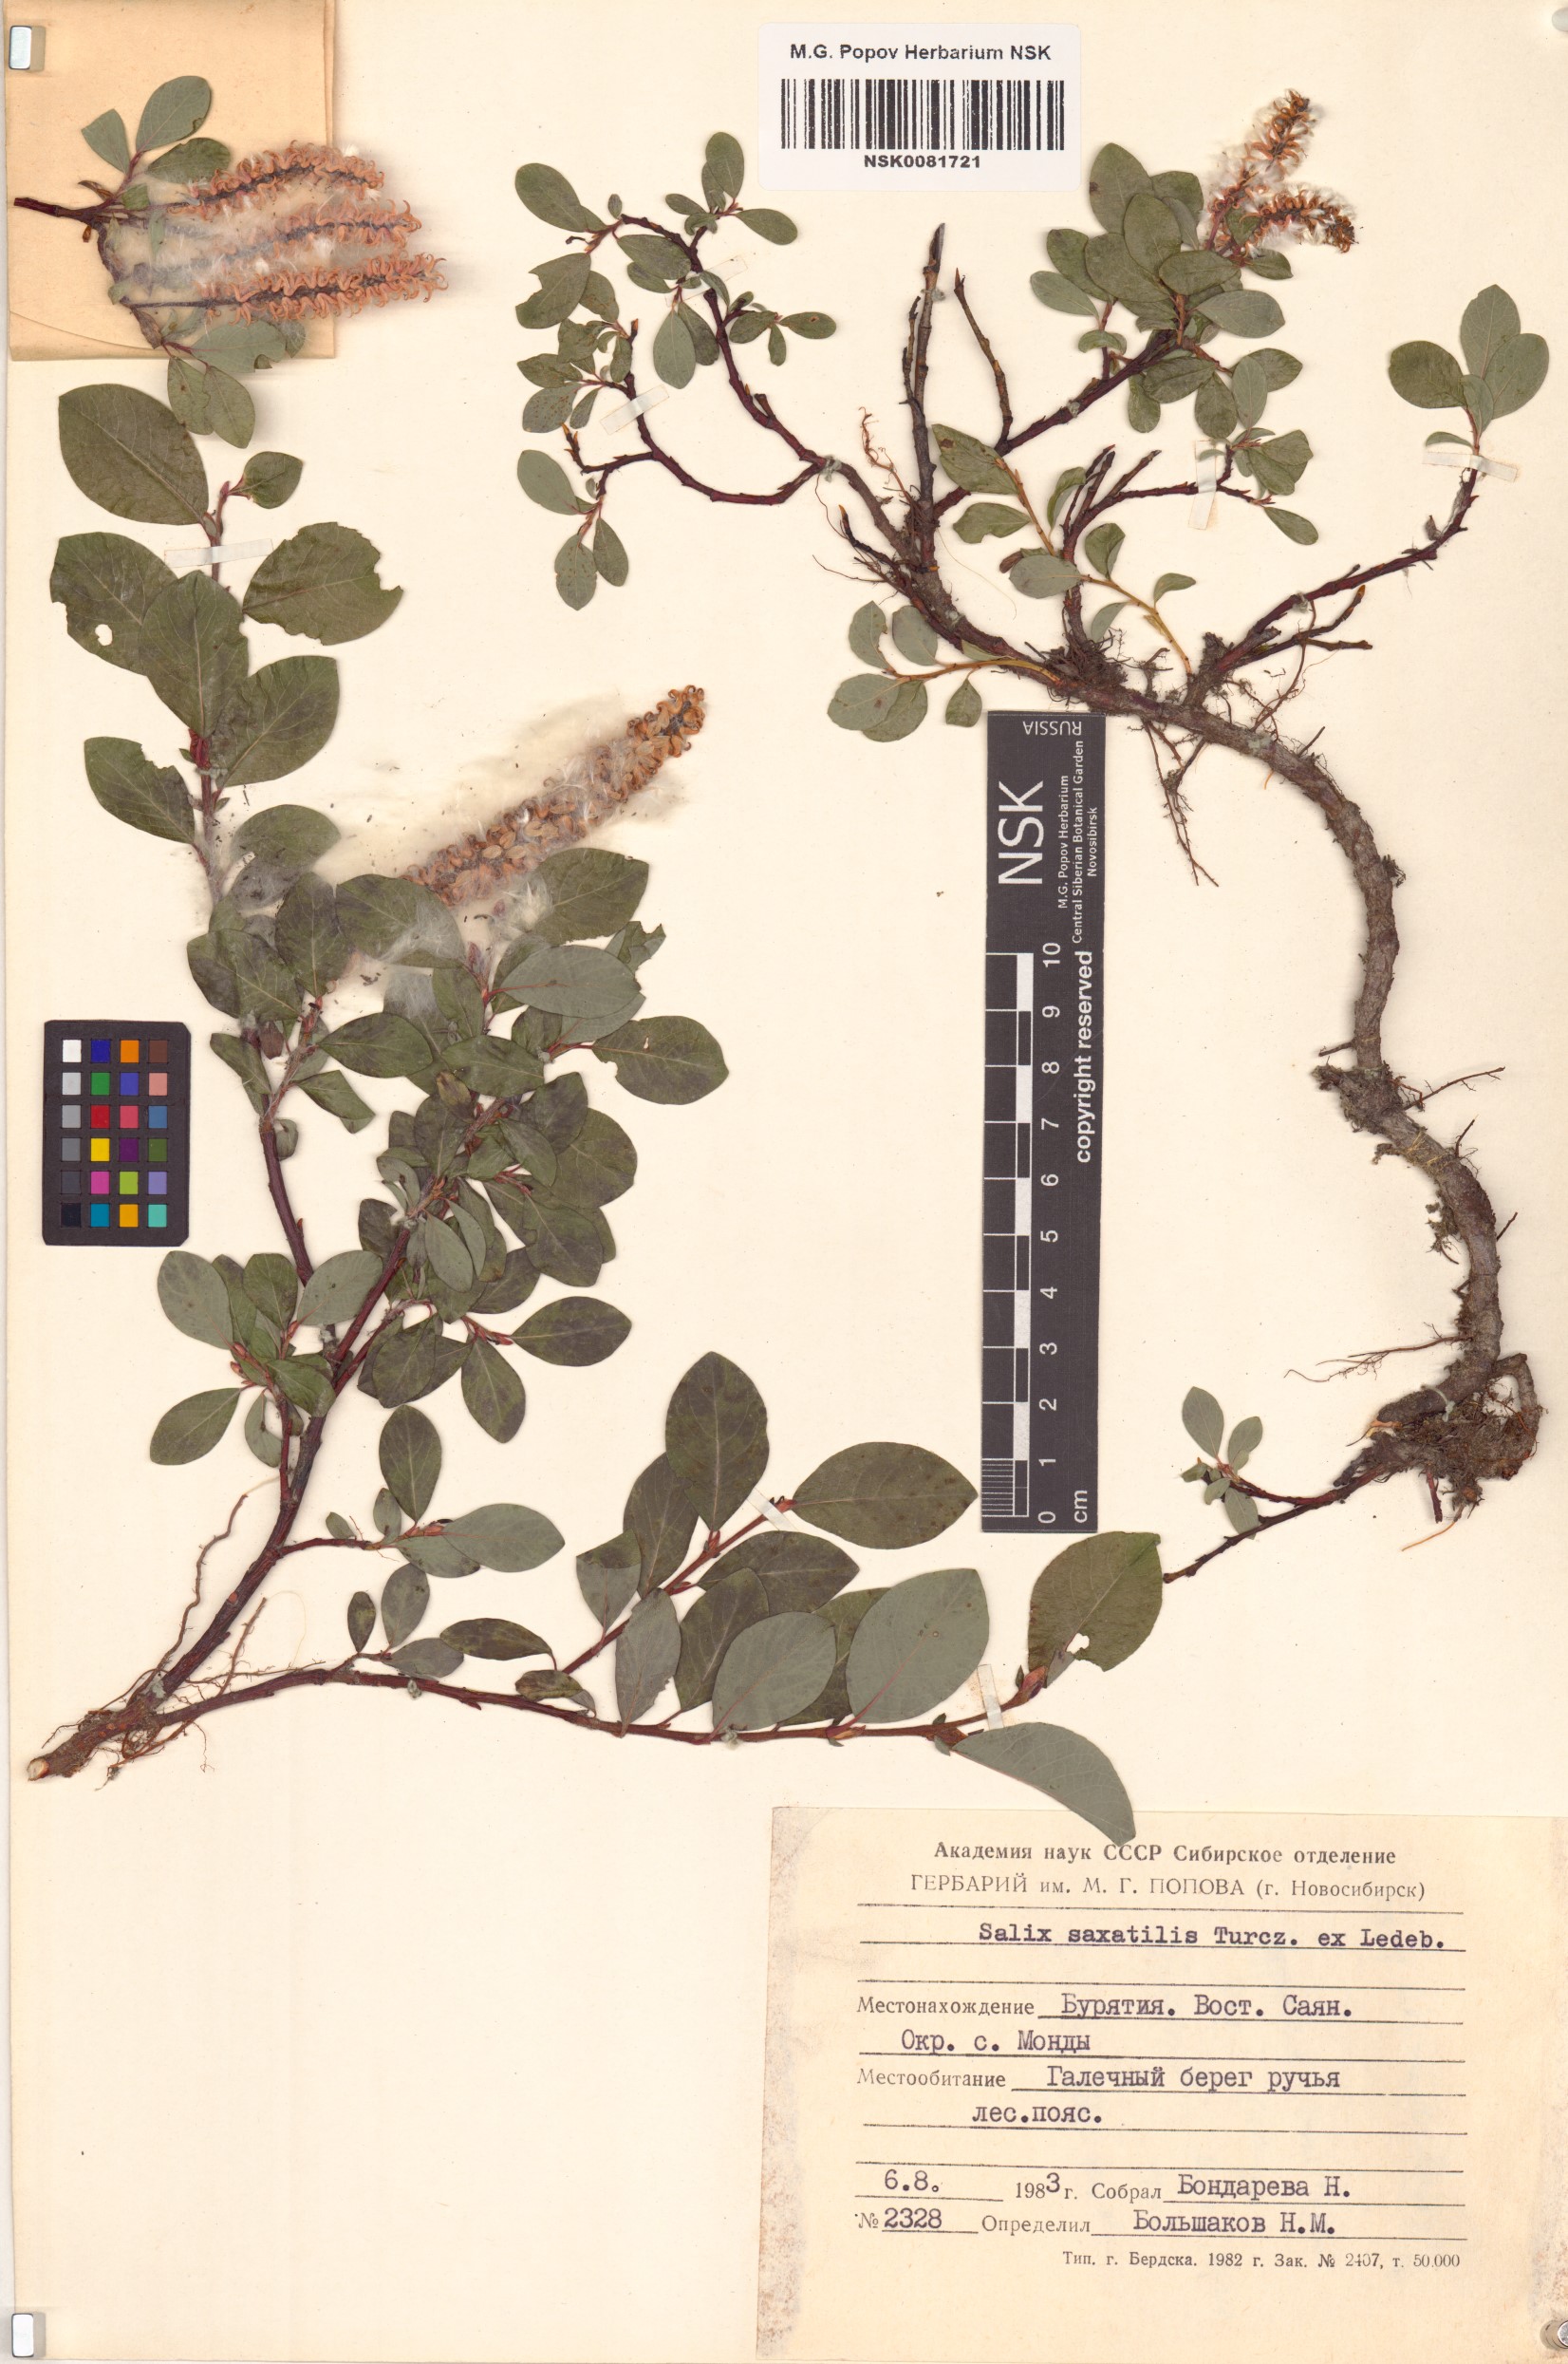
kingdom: Plantae
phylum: Tracheophyta
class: Magnoliopsida
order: Malpighiales
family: Salicaceae
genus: Salix
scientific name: Salix saxatilis
